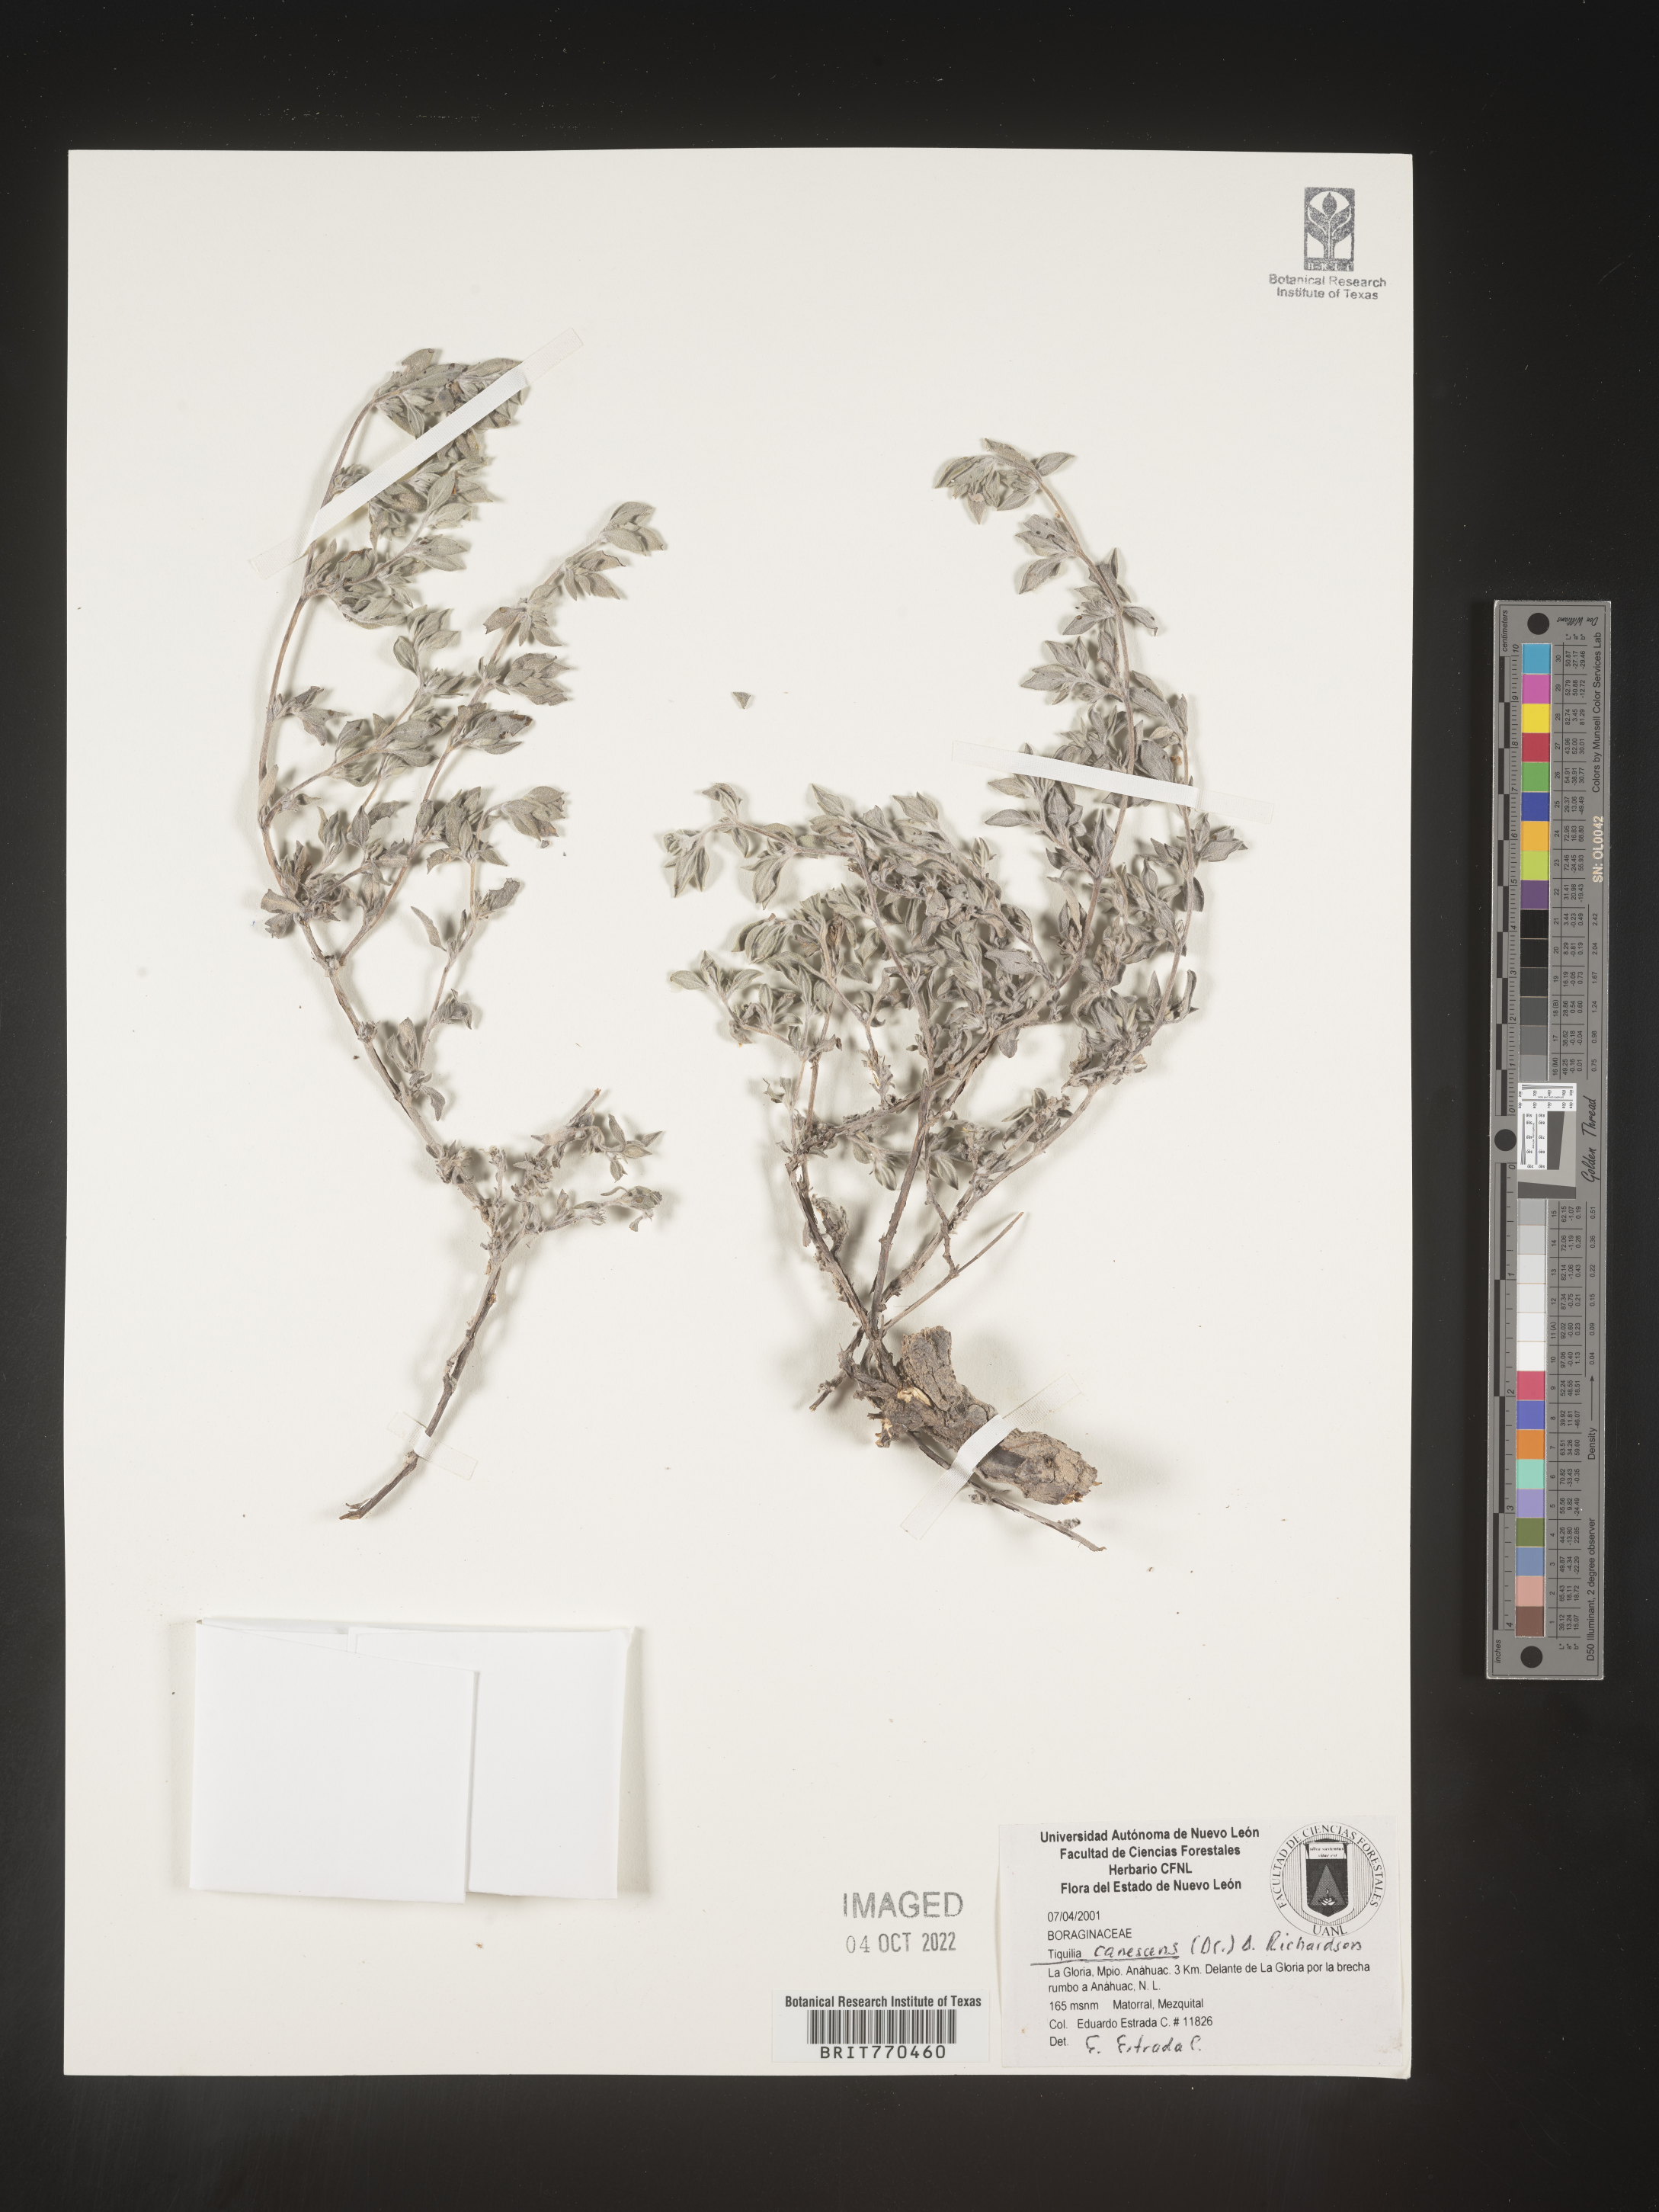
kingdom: Plantae
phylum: Tracheophyta
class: Magnoliopsida
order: Boraginales
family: Ehretiaceae
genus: Tiquilia
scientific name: Tiquilia
